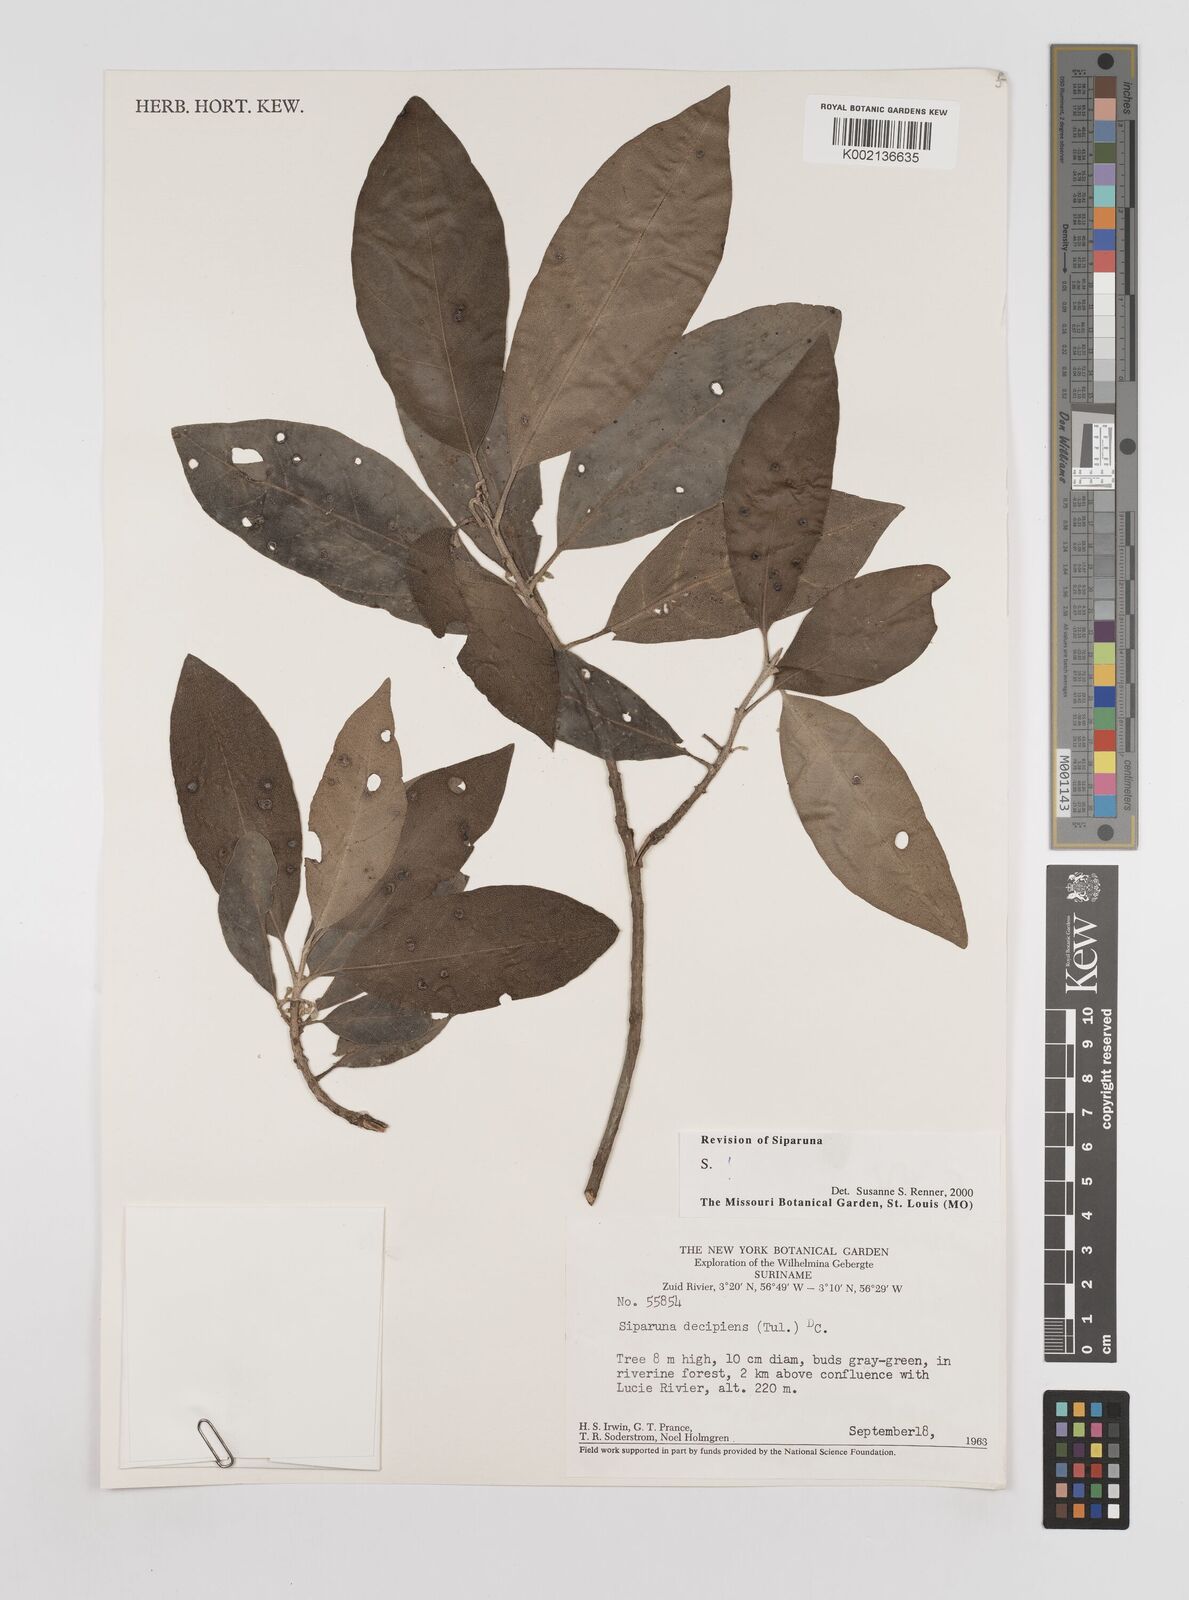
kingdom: Plantae
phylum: Tracheophyta
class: Magnoliopsida
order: Laurales
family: Siparunaceae
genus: Siparuna
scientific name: Siparuna decipiens
